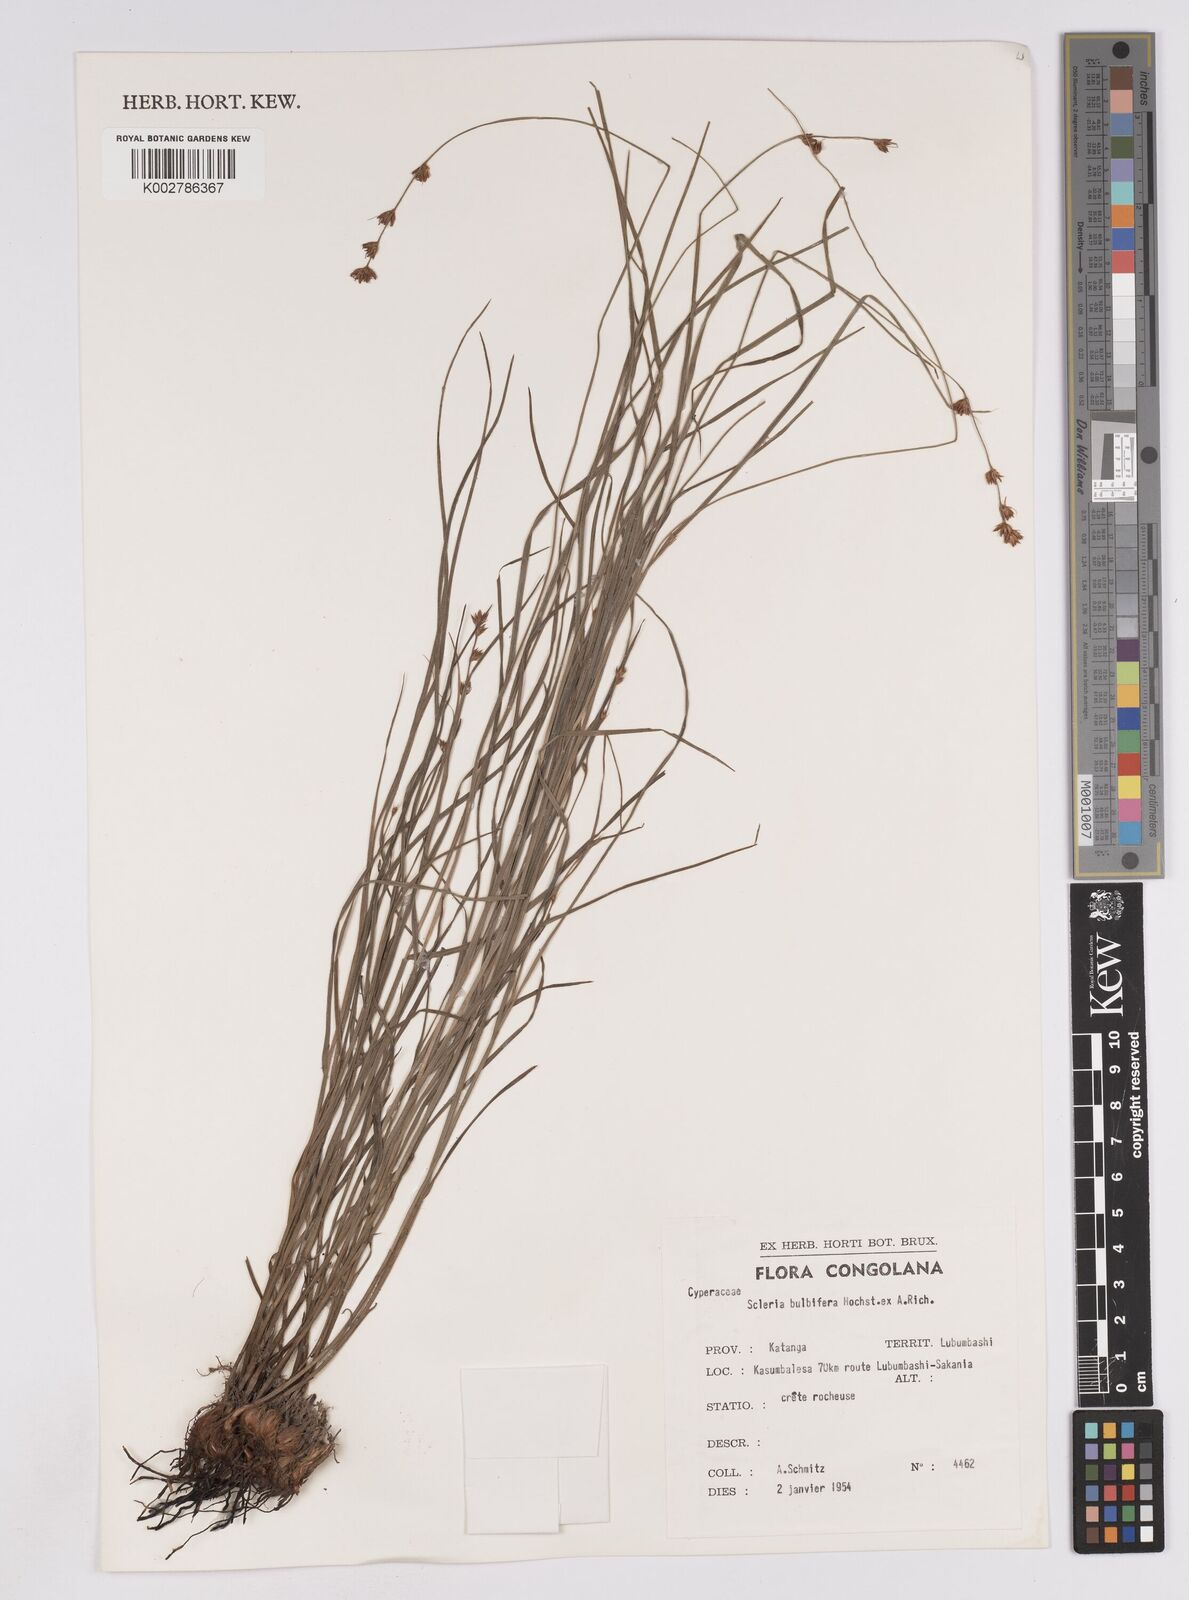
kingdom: Plantae
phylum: Tracheophyta
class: Liliopsida
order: Poales
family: Cyperaceae
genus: Scleria
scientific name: Scleria bulbifera
